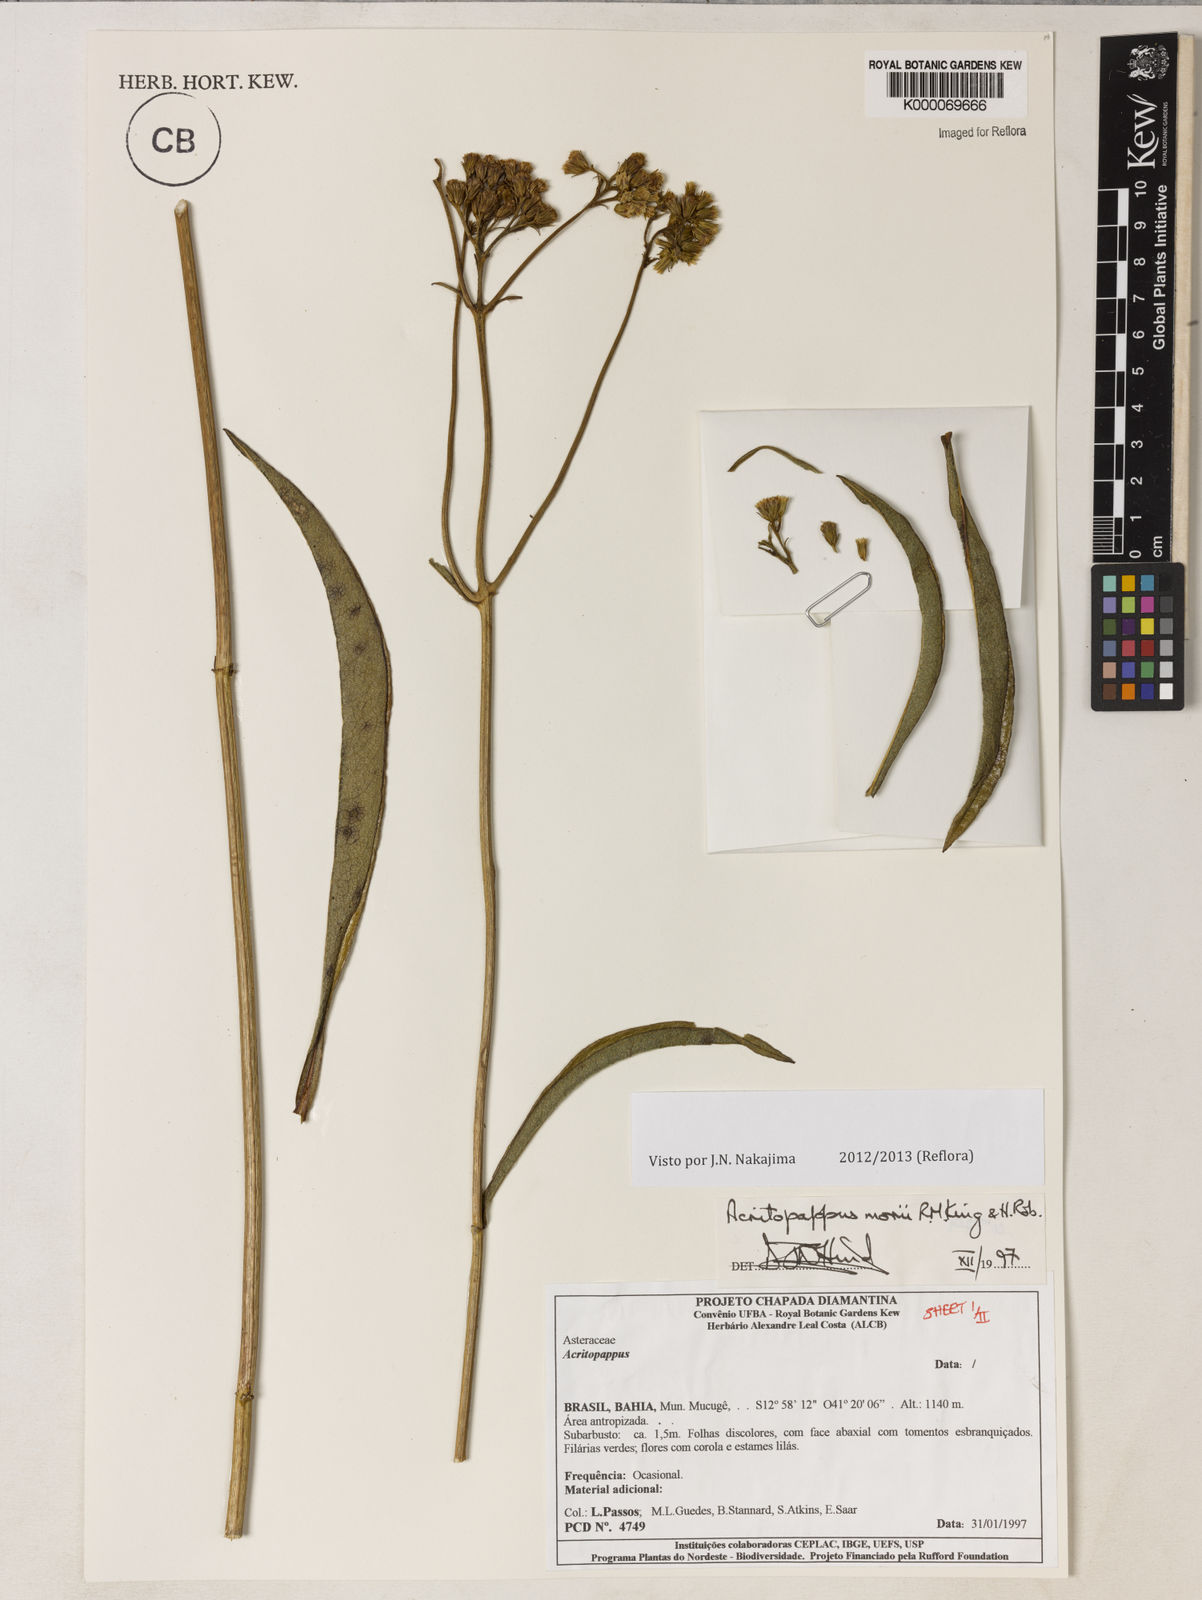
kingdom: Plantae
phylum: Tracheophyta
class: Magnoliopsida
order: Asterales
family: Asteraceae
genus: Acritopappus
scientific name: Acritopappus morii
